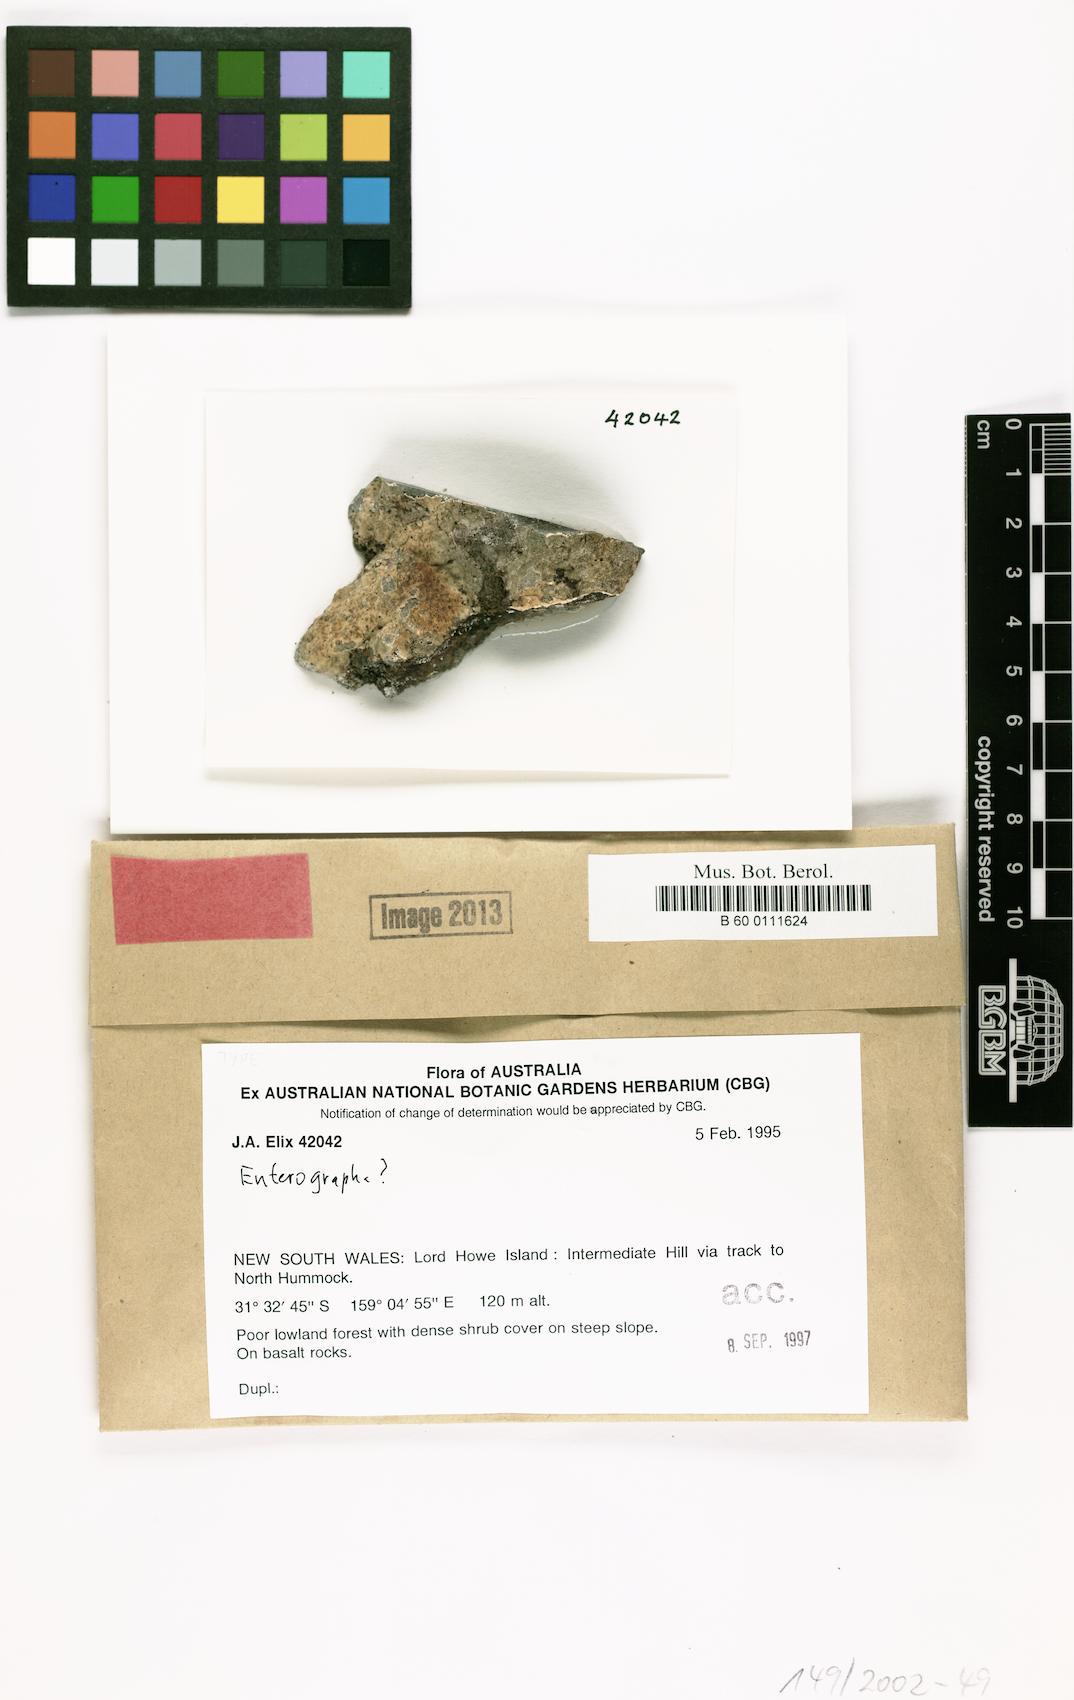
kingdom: Fungi
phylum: Ascomycota
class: Arthoniomycetes
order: Arthoniales
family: Roccellaceae
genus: Schismatomma
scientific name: Schismatomma insulae-howense
